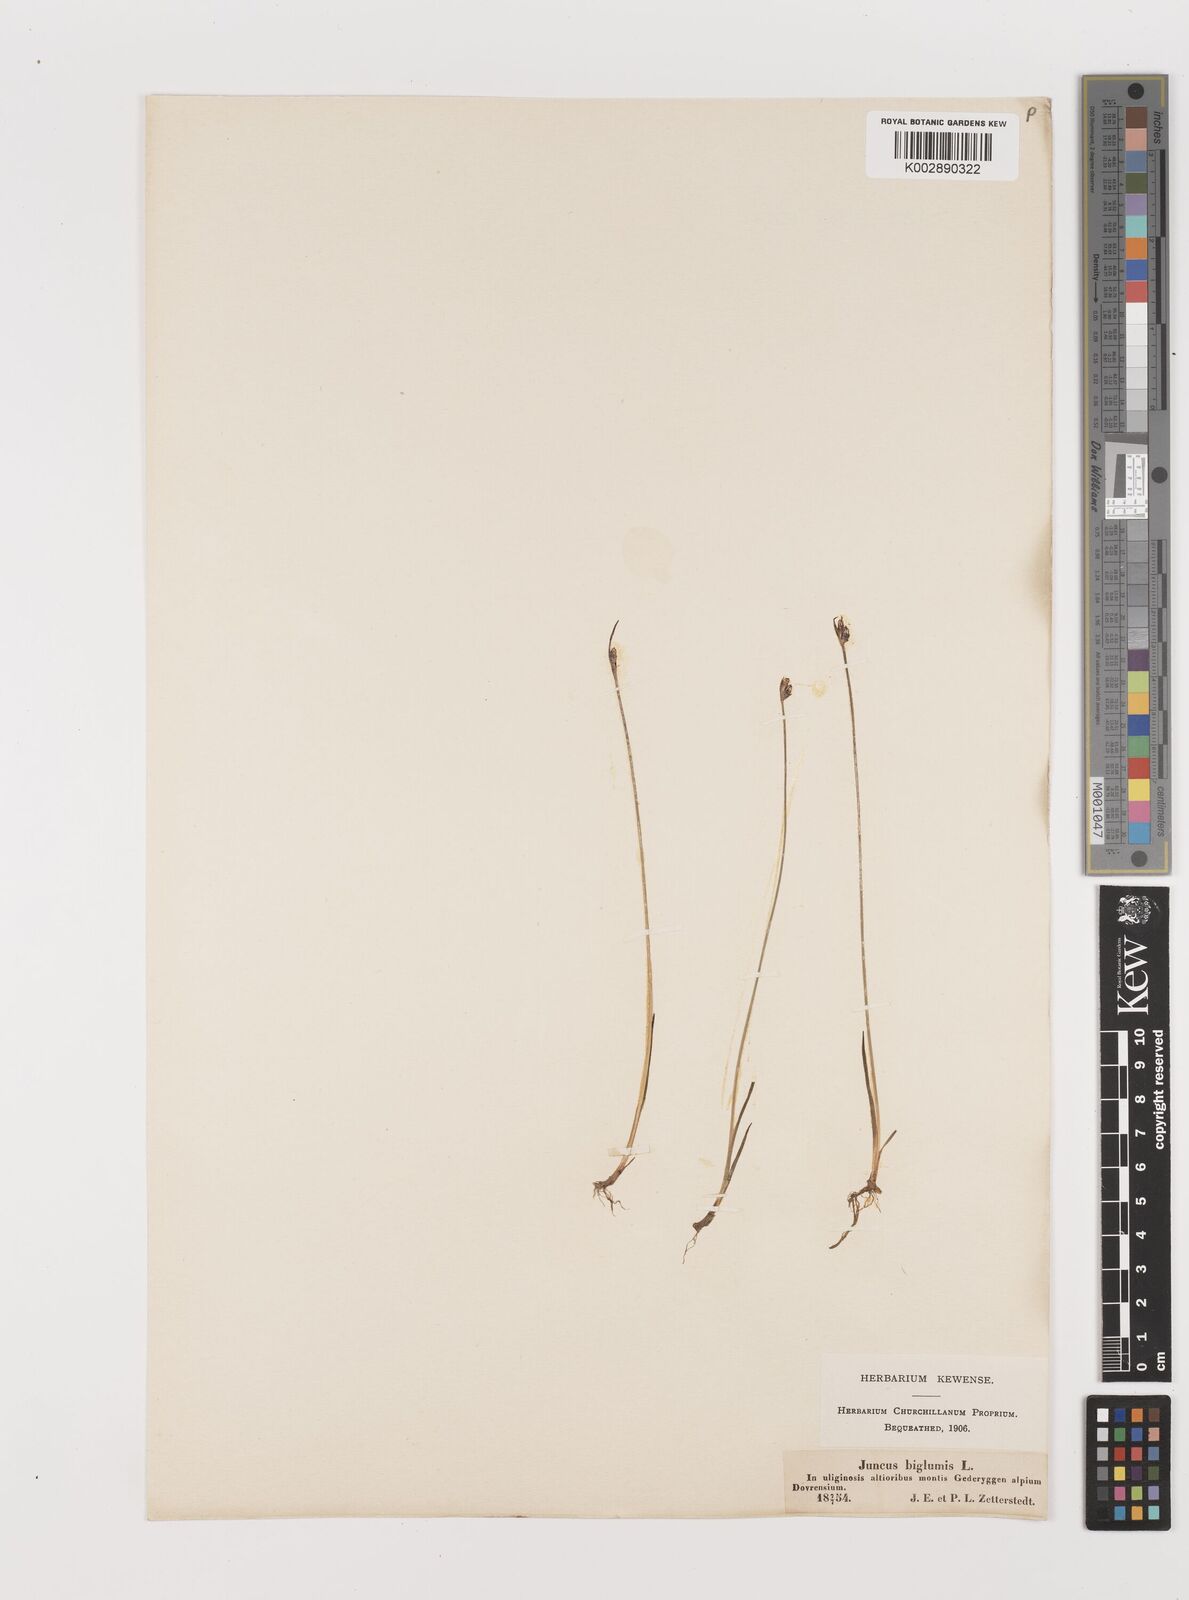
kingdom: Plantae
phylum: Tracheophyta
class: Liliopsida
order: Poales
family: Juncaceae
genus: Juncus
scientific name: Juncus biglumis
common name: Two-flowered rush
